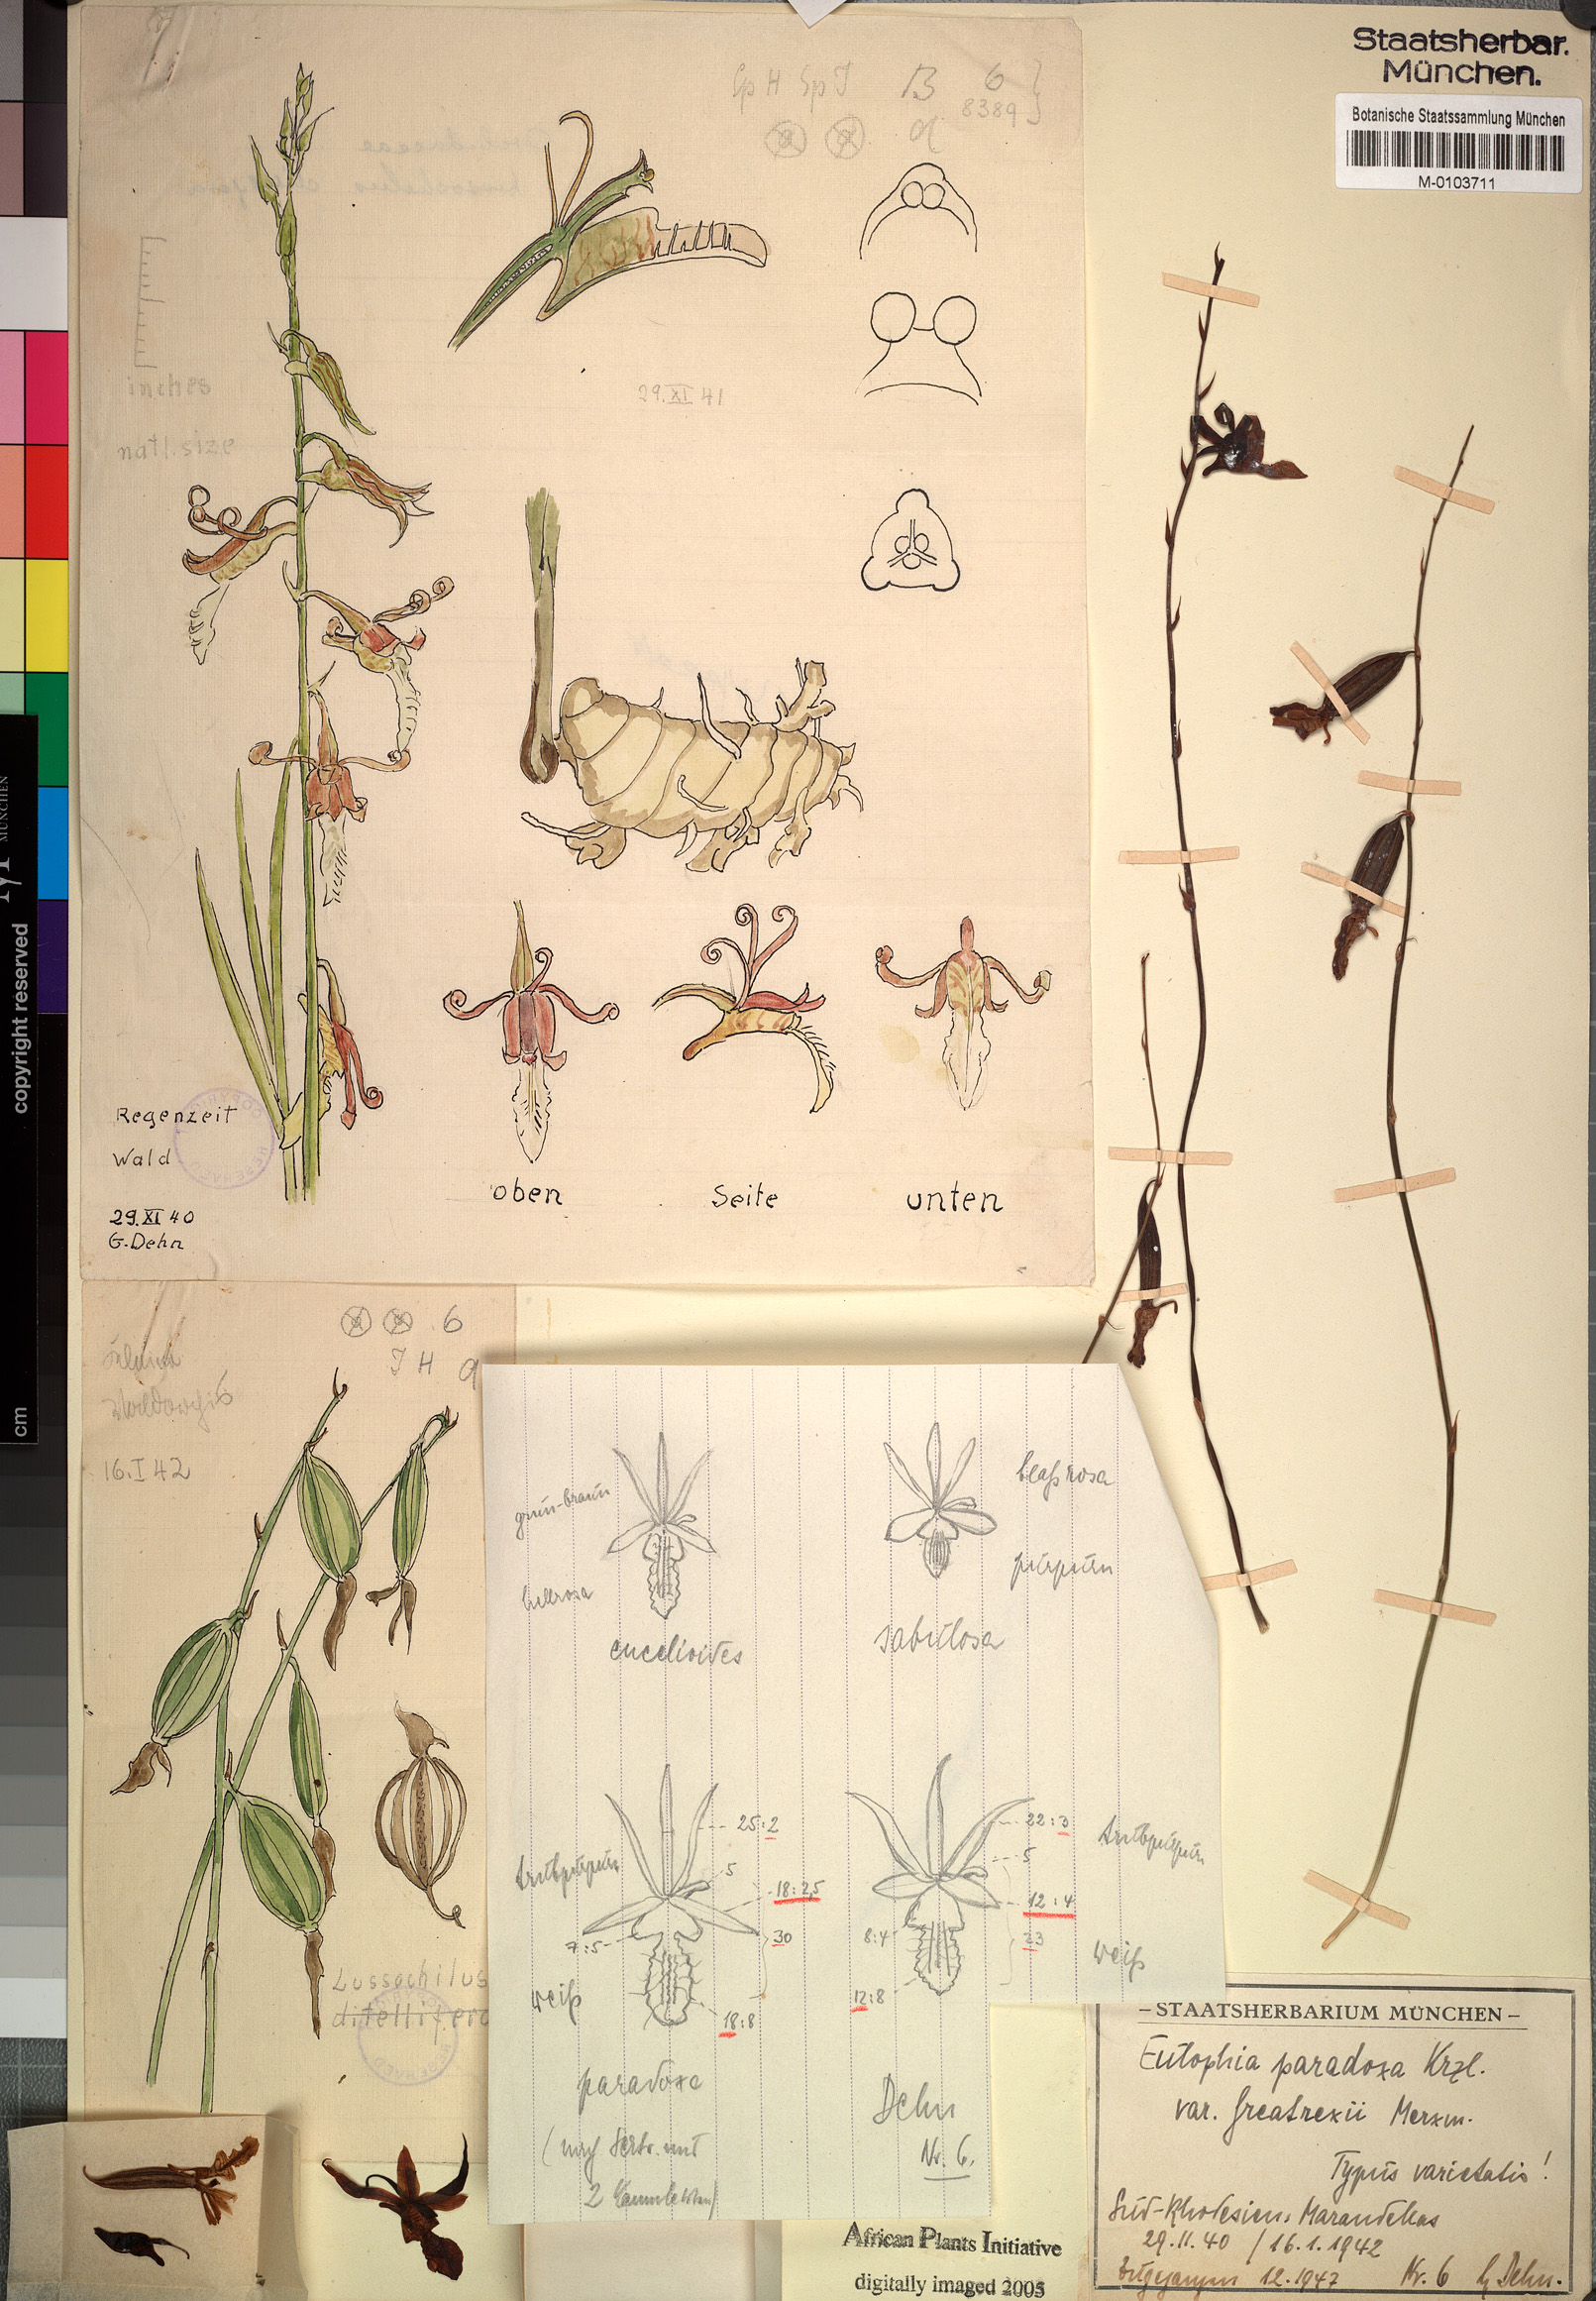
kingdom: Plantae
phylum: Tracheophyta
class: Liliopsida
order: Asparagales
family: Orchidaceae
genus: Eulophia
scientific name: Eulophia venulosa
